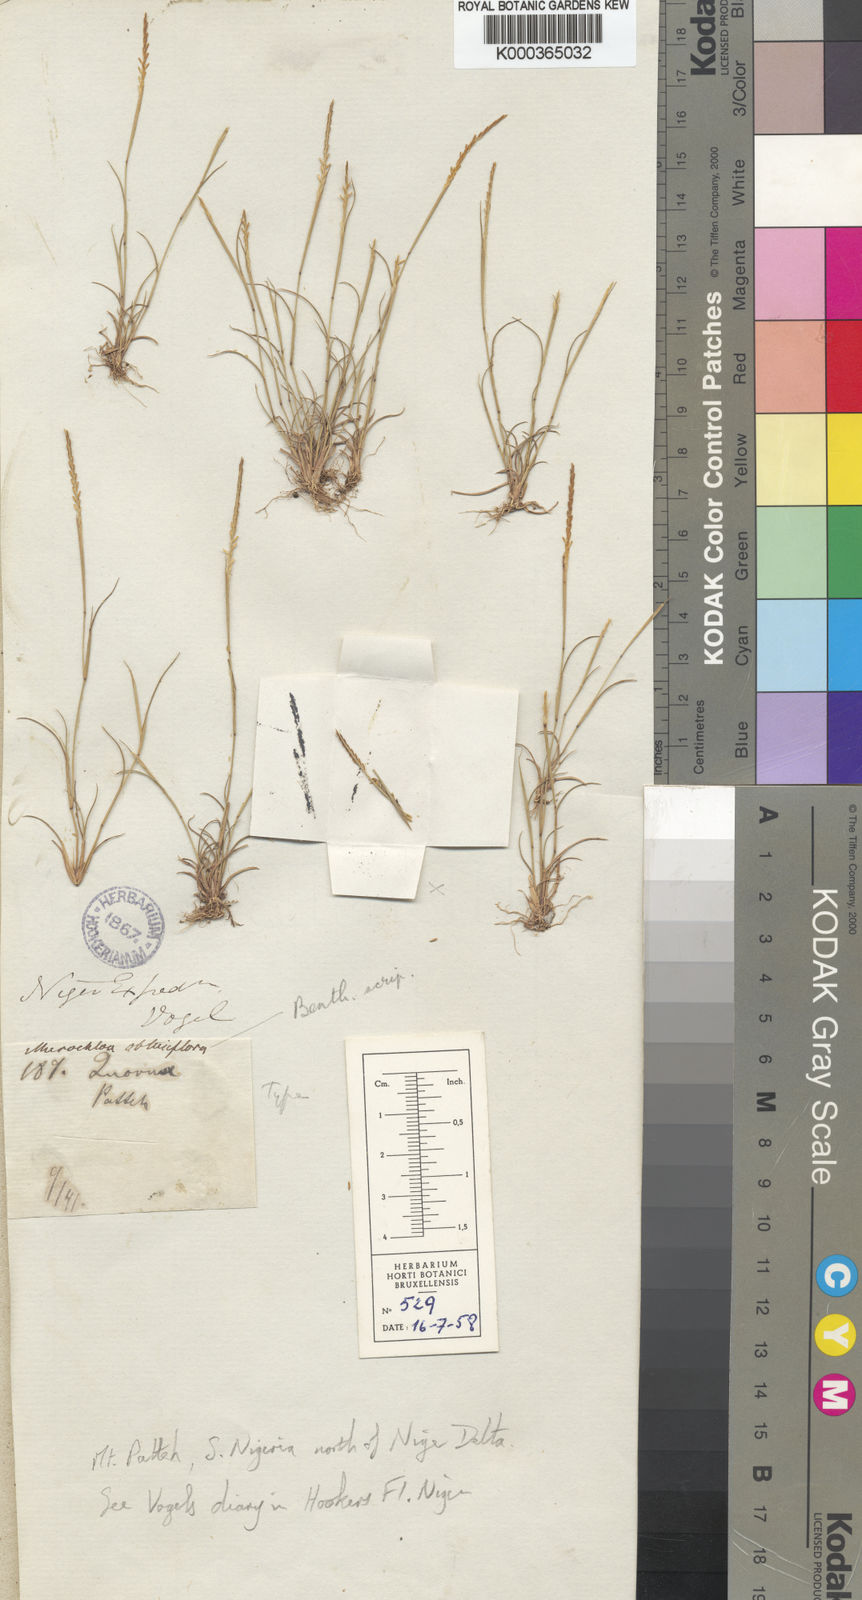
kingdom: Plantae
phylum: Tracheophyta
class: Liliopsida
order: Poales
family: Poaceae
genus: Micrachne
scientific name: Micrachne obtusiflora
